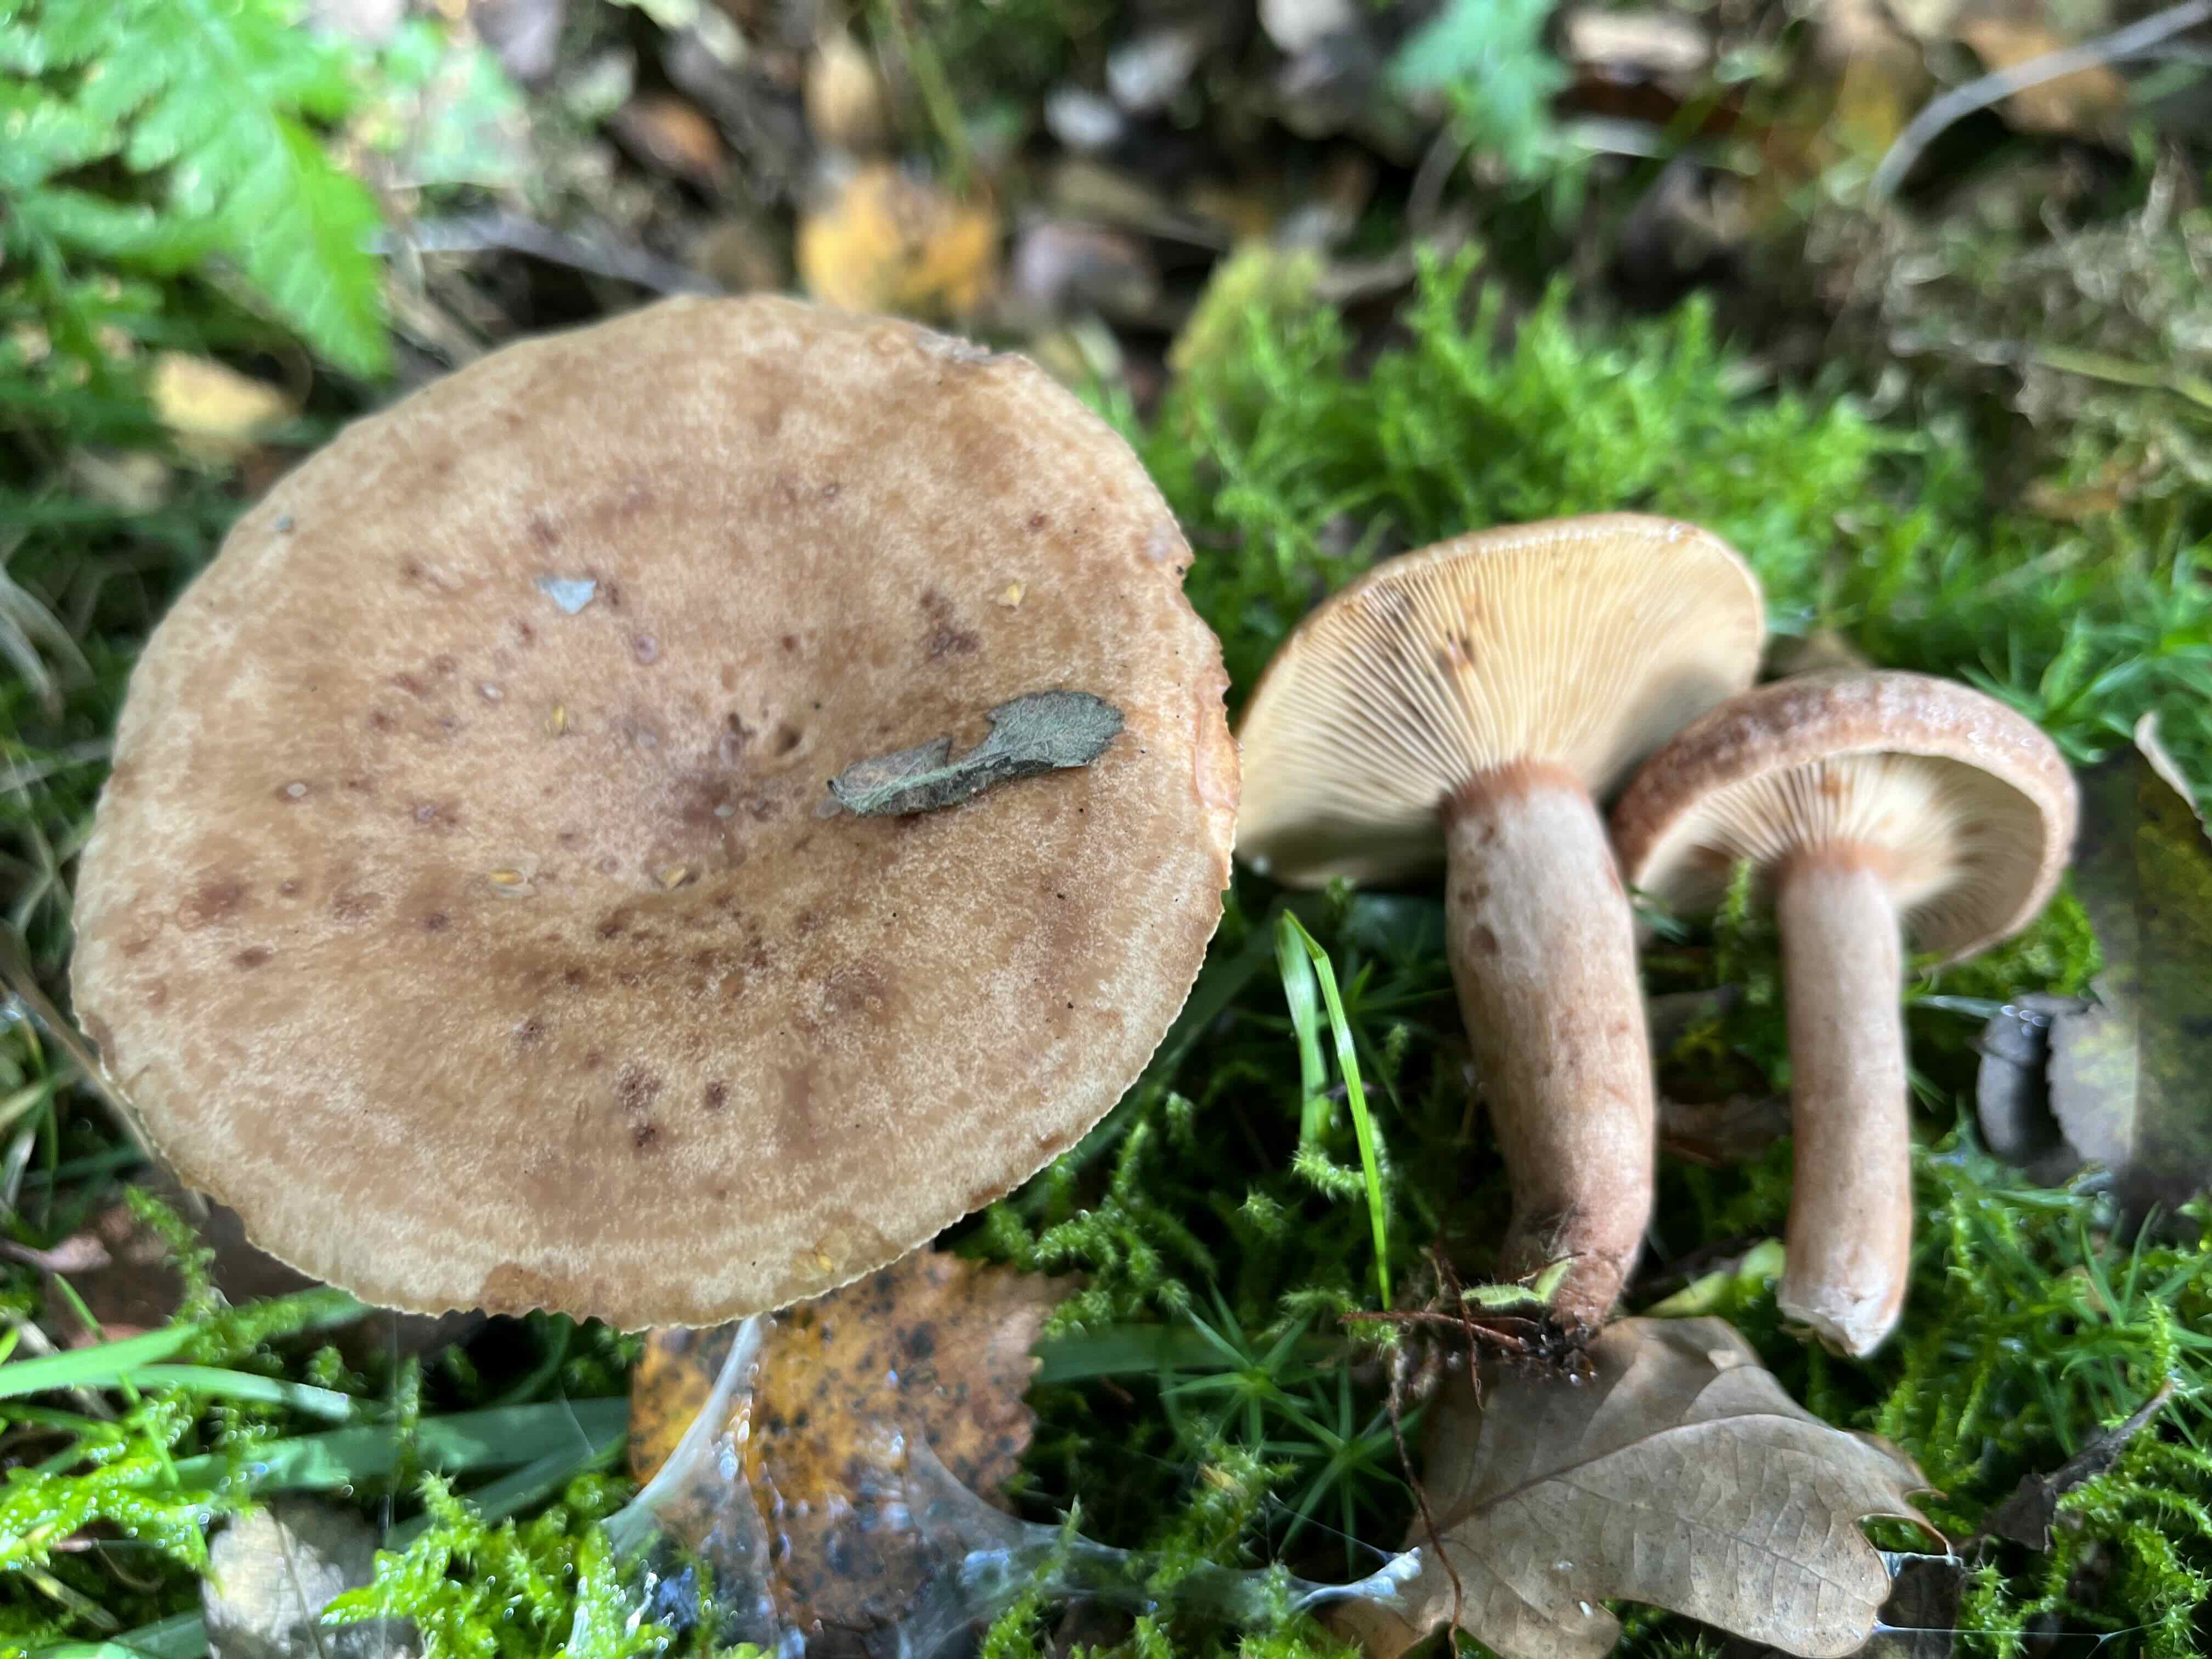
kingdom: Fungi
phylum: Basidiomycota
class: Agaricomycetes
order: Russulales
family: Russulaceae
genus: Lactarius
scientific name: Lactarius quietus
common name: ege-mælkehat
